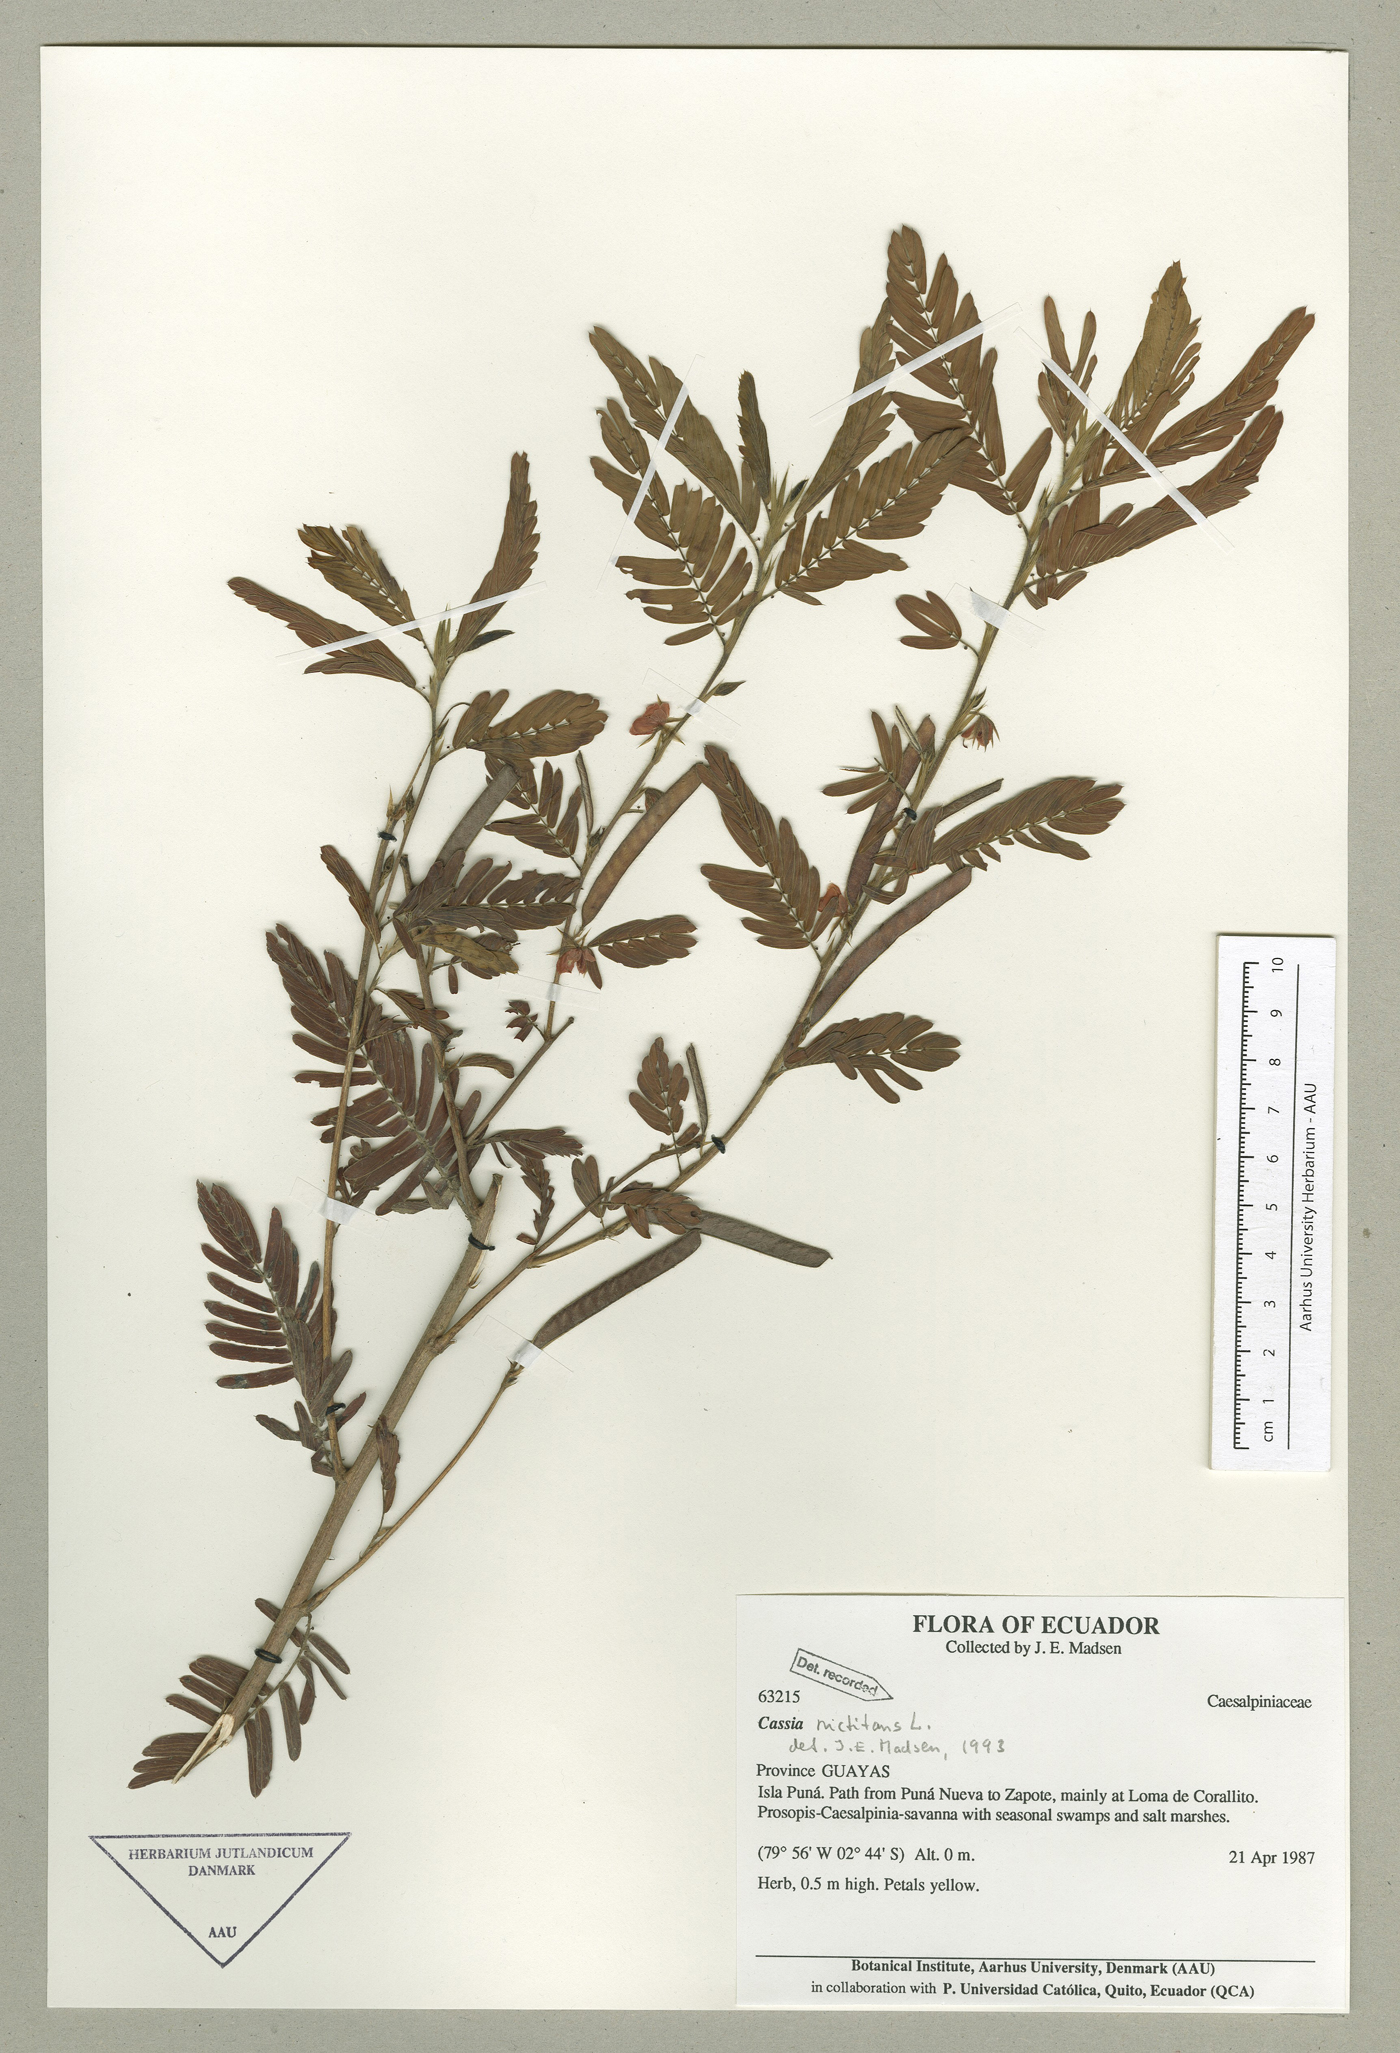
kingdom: Plantae
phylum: Tracheophyta
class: Magnoliopsida
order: Fabales
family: Fabaceae
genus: Chamaecrista
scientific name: Chamaecrista nictitans
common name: Sensitive cassia
